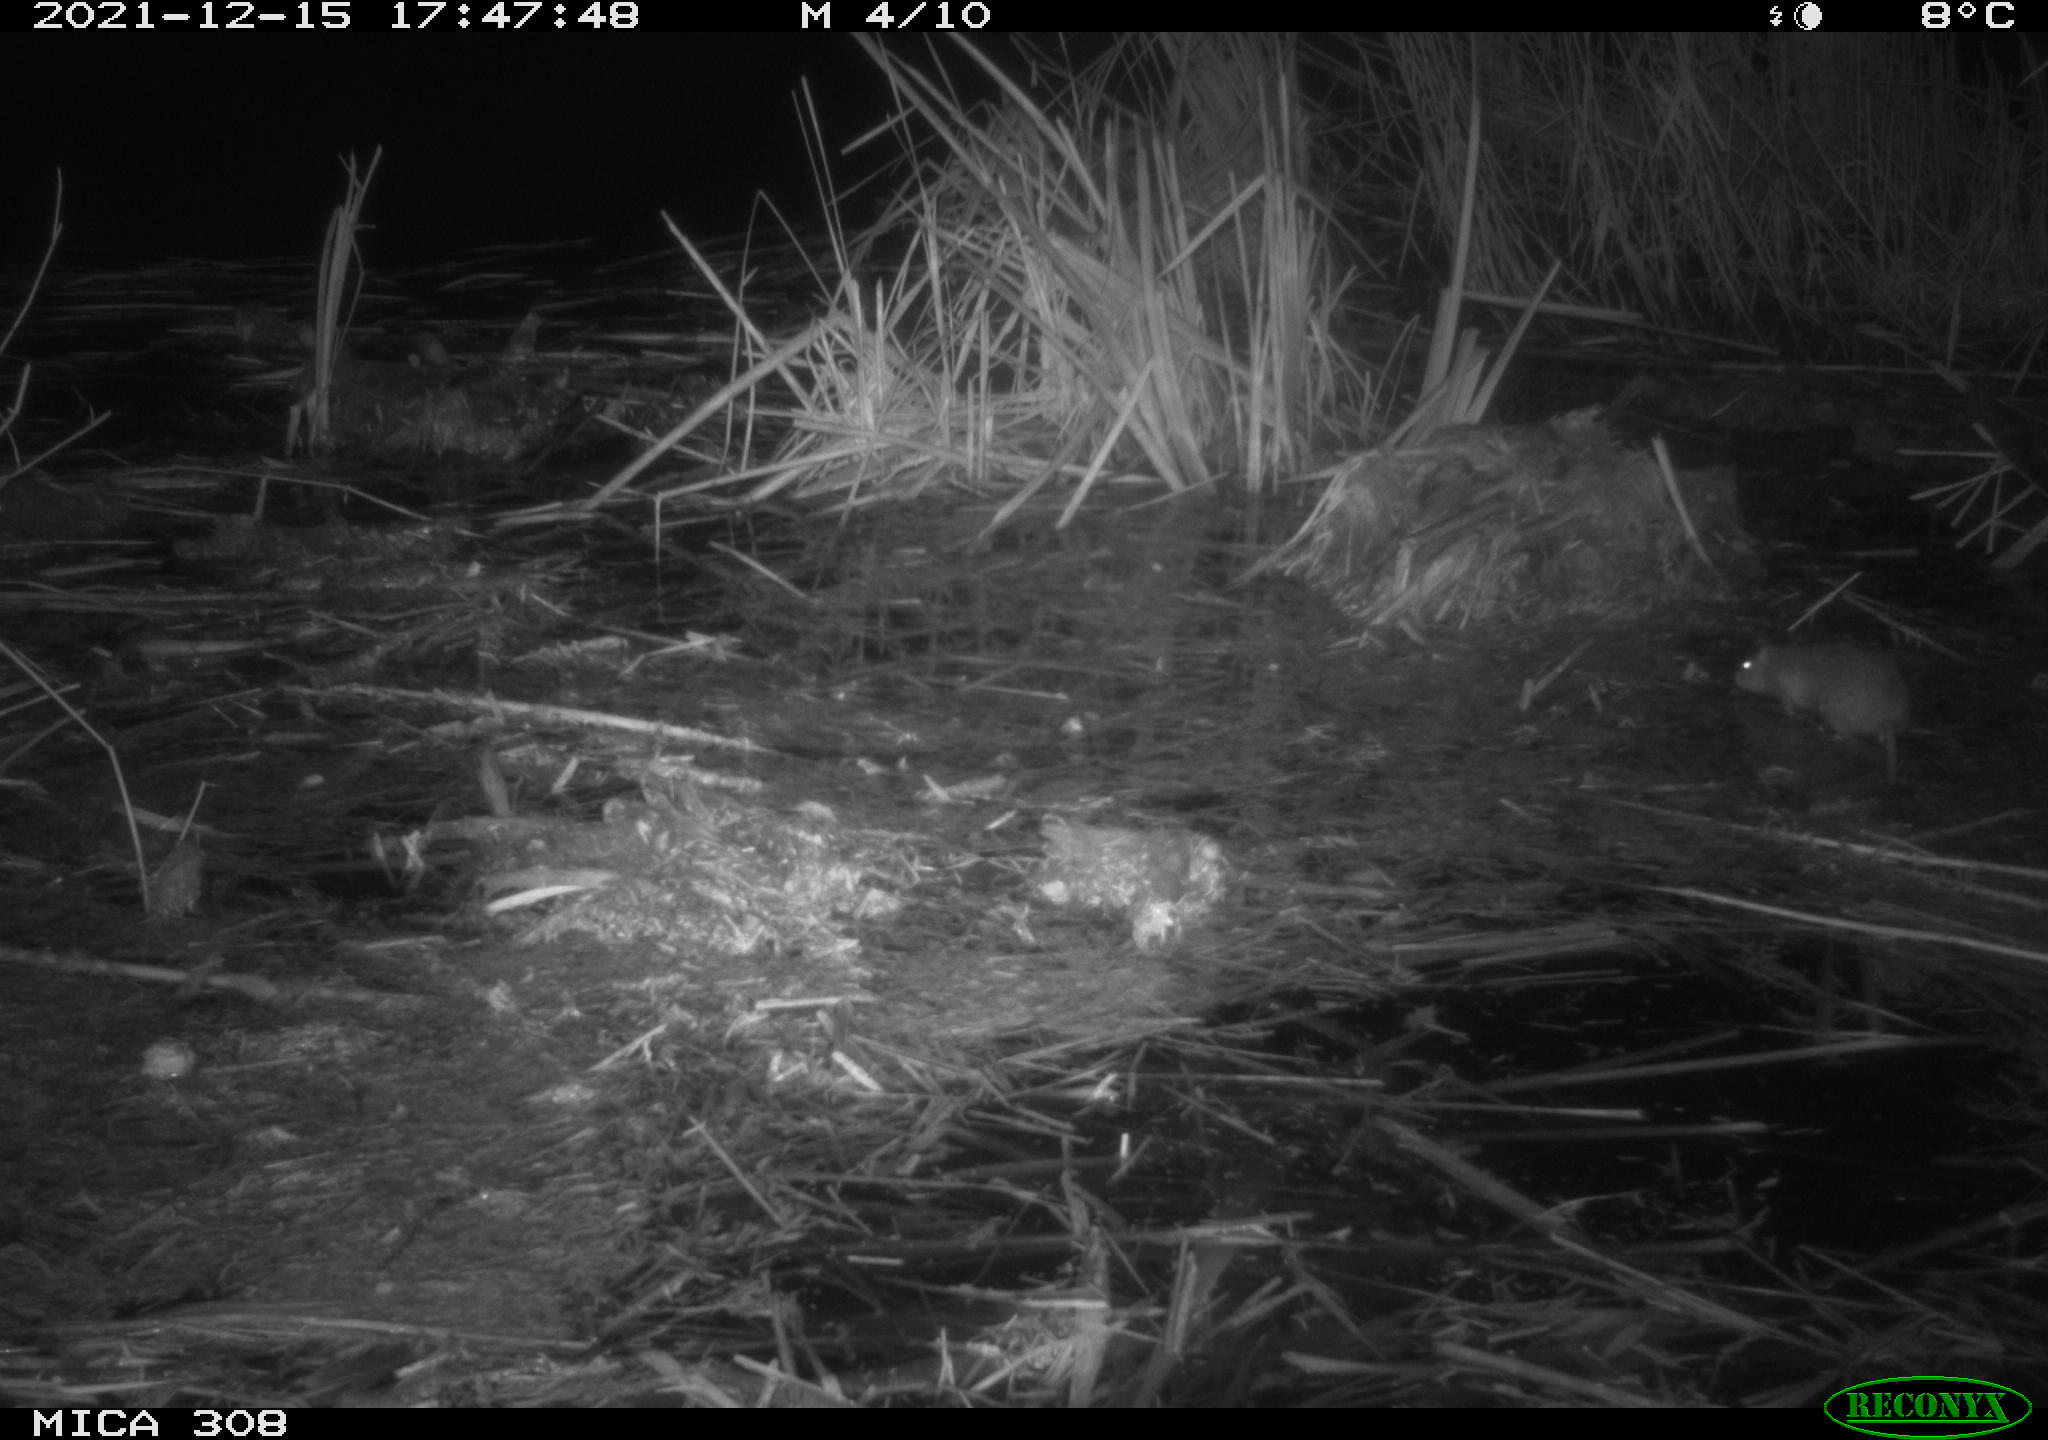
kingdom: Animalia
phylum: Chordata
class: Mammalia
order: Rodentia
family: Muridae
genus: Rattus
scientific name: Rattus norvegicus
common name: Brown rat
